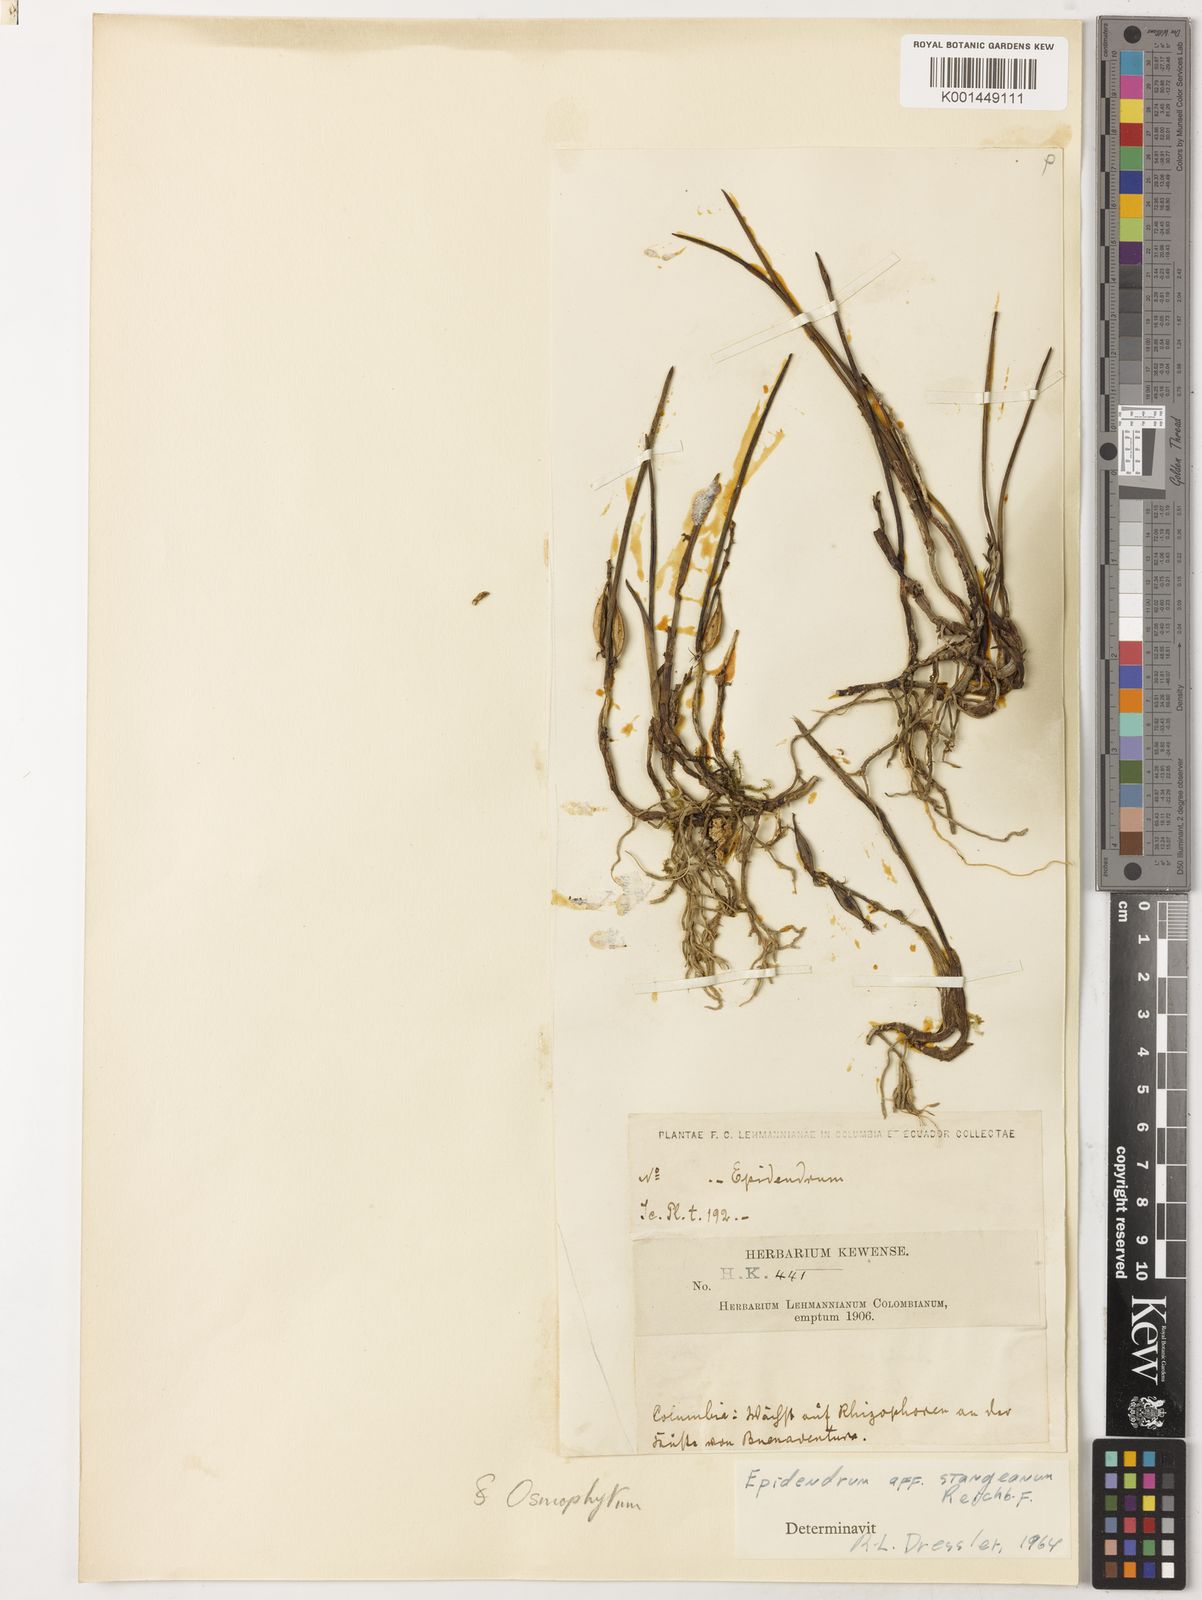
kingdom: Plantae
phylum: Tracheophyta
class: Liliopsida
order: Asparagales
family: Orchidaceae
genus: Epidendrum
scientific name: Epidendrum stangeanum
